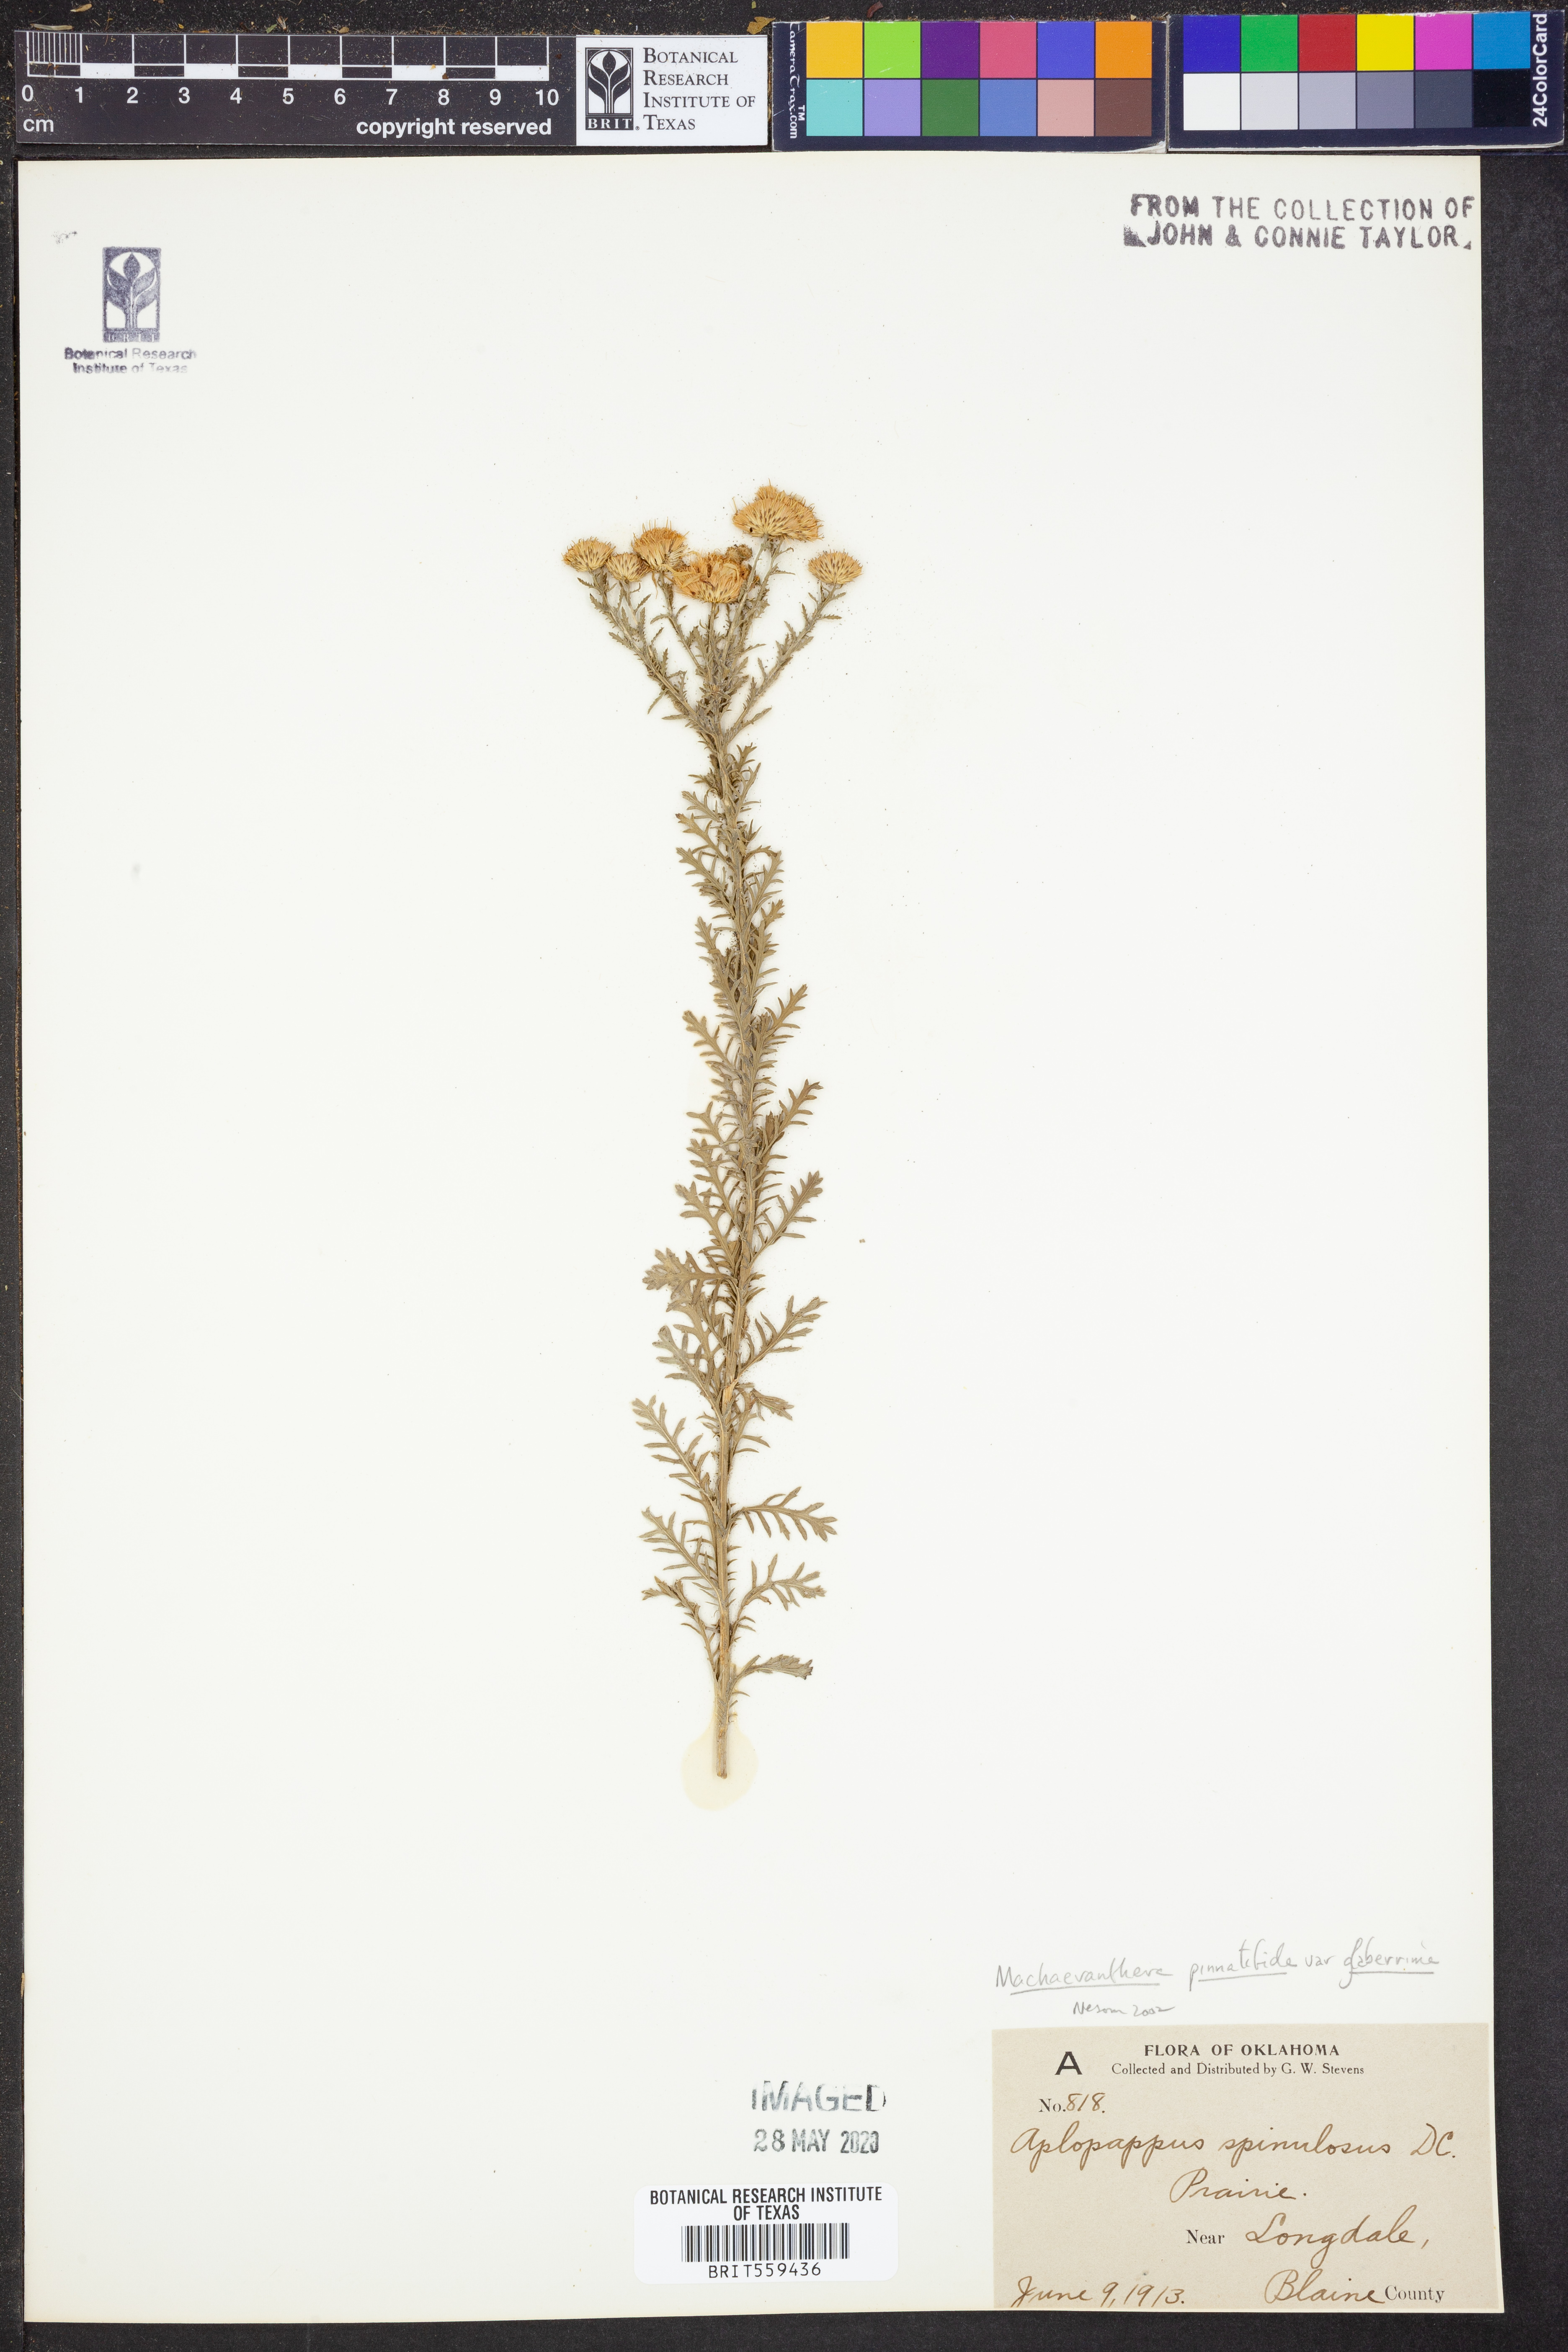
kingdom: Plantae
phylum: Tracheophyta
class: Magnoliopsida
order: Asterales
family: Asteraceae
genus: Xanthisma
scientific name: Xanthisma spinulosum
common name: Spiny goldenweed
